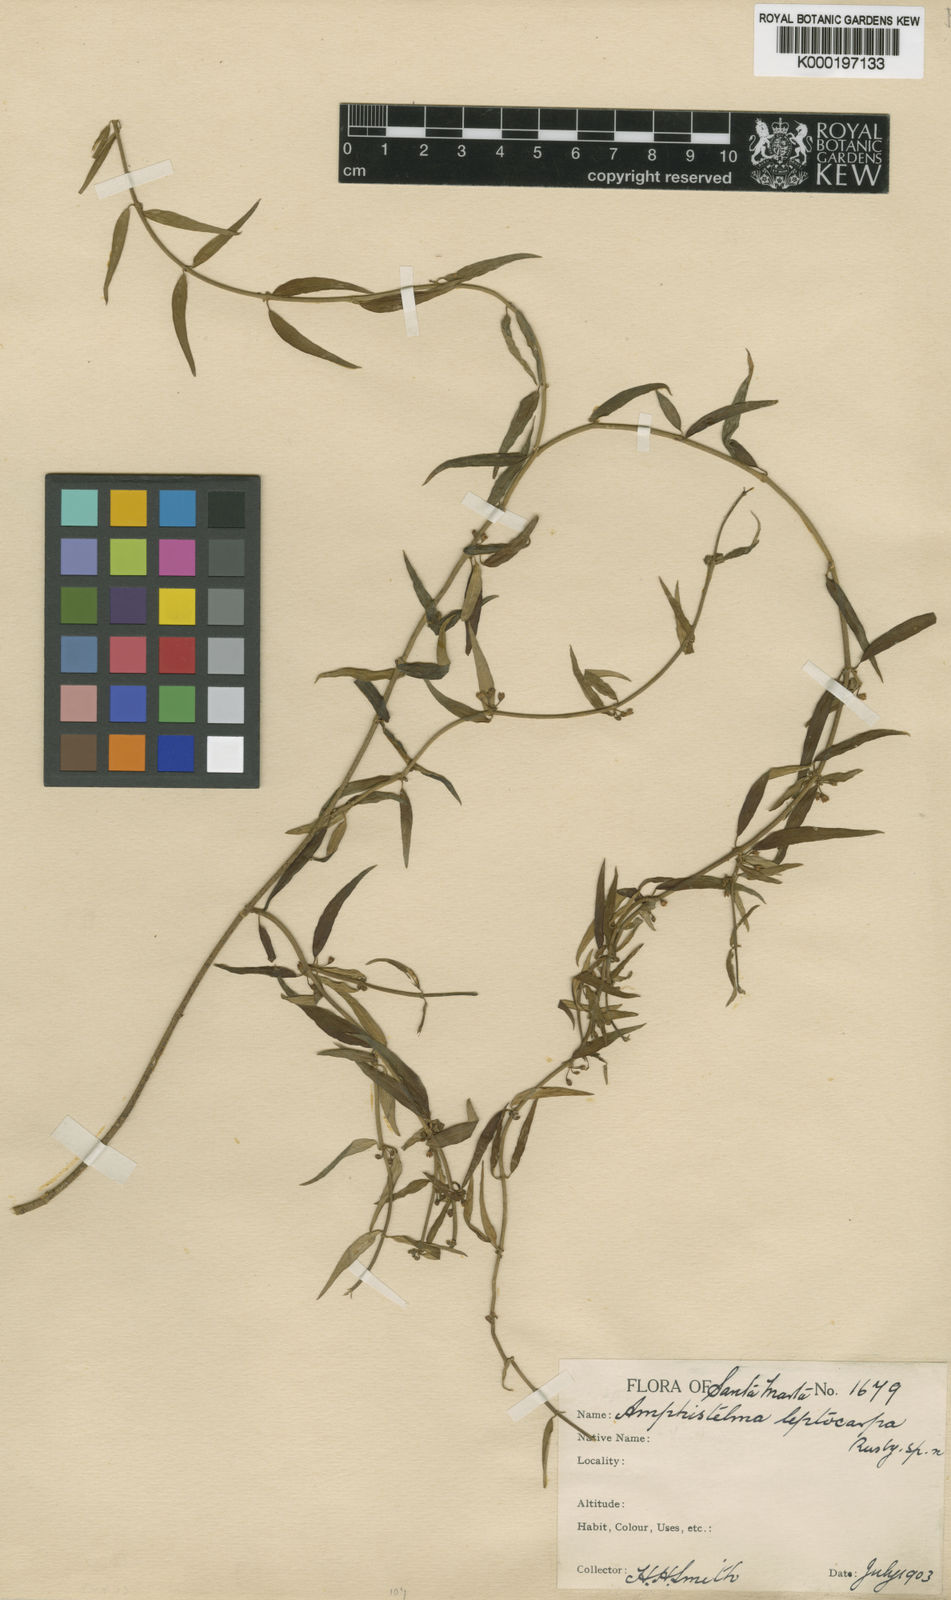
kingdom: Plantae
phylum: Tracheophyta
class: Magnoliopsida
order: Gentianales
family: Apocynaceae
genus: Metastelma
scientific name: Metastelma
